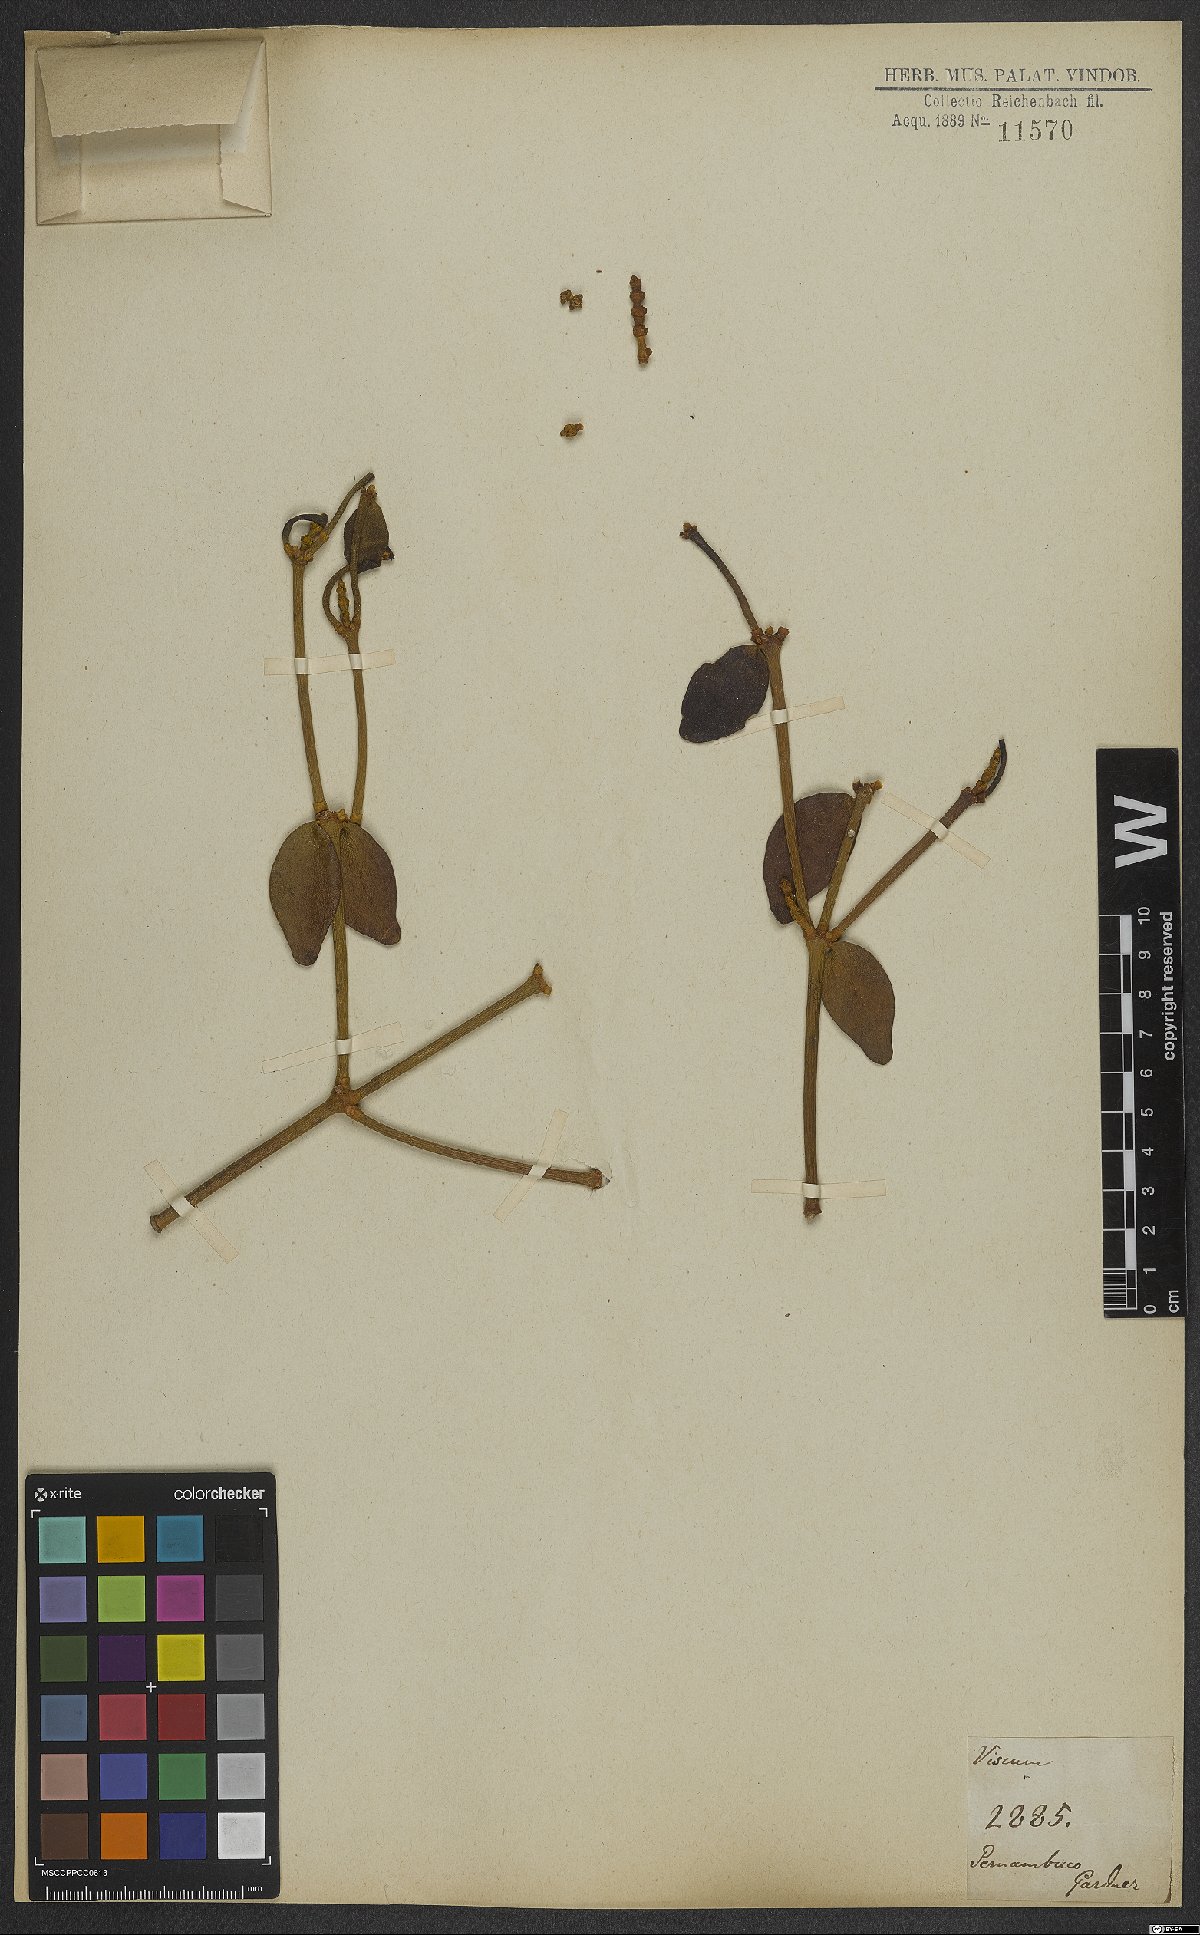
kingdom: Plantae
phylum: Tracheophyta
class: Magnoliopsida
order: Santalales
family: Viscaceae
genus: Viscum
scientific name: Viscum
